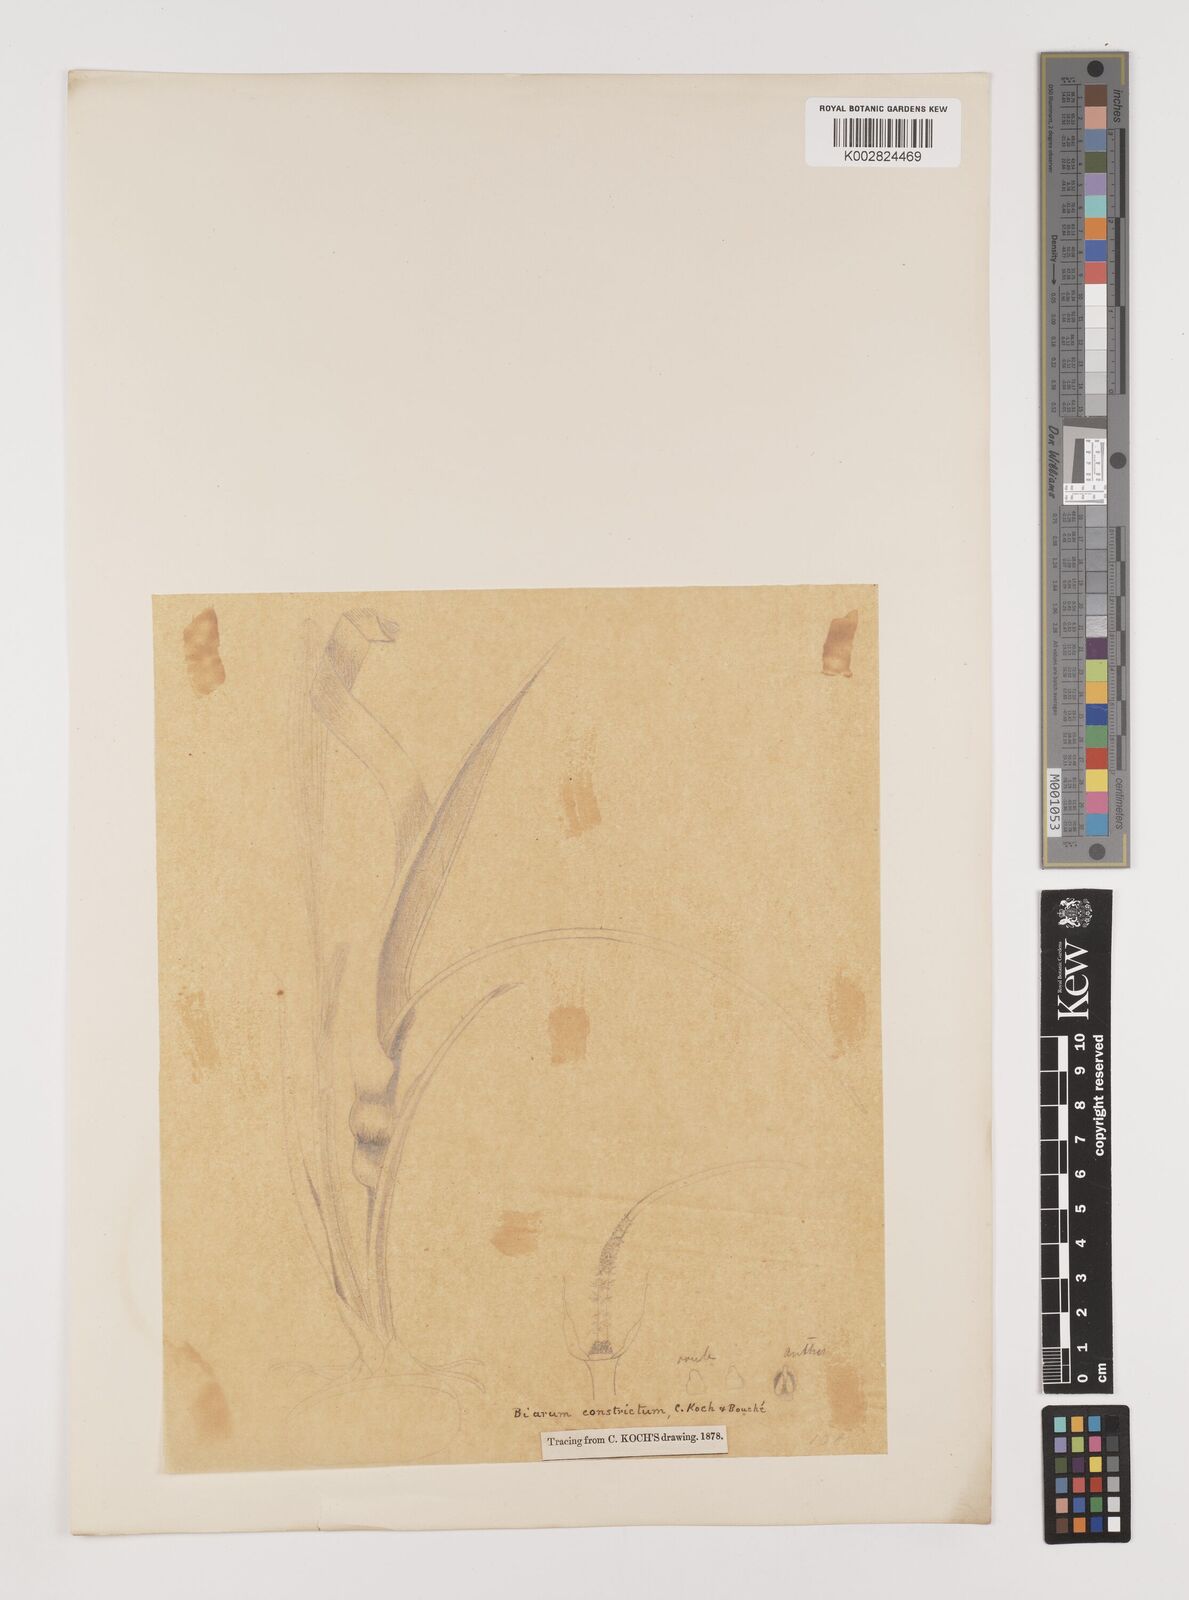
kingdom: Plantae
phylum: Tracheophyta
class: Liliopsida
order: Alismatales
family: Araceae
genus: Biarum
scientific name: Biarum tenuifolium
